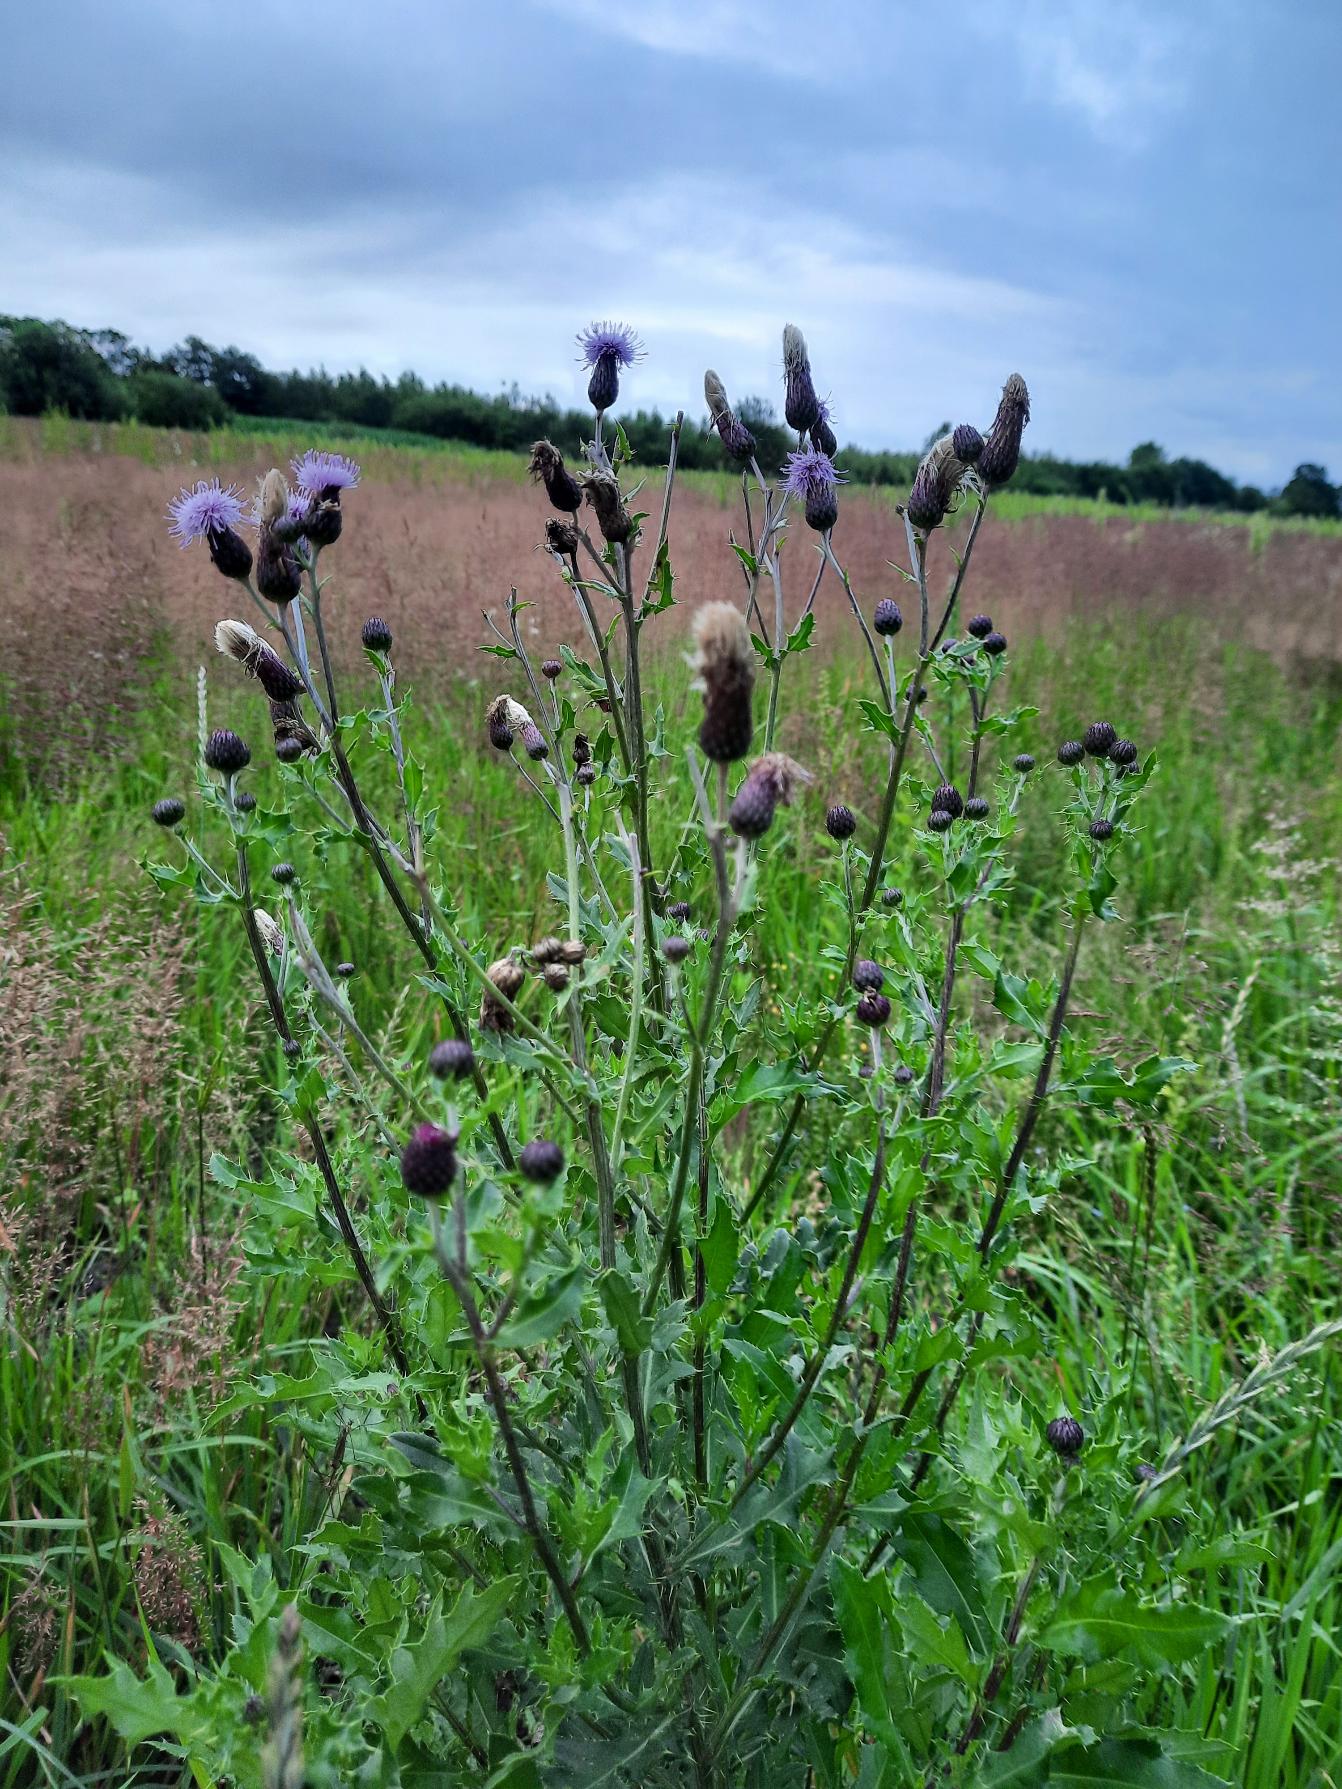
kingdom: Plantae
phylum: Tracheophyta
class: Magnoliopsida
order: Asterales
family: Asteraceae
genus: Cirsium
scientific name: Cirsium arvense
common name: Ager-tidsel
